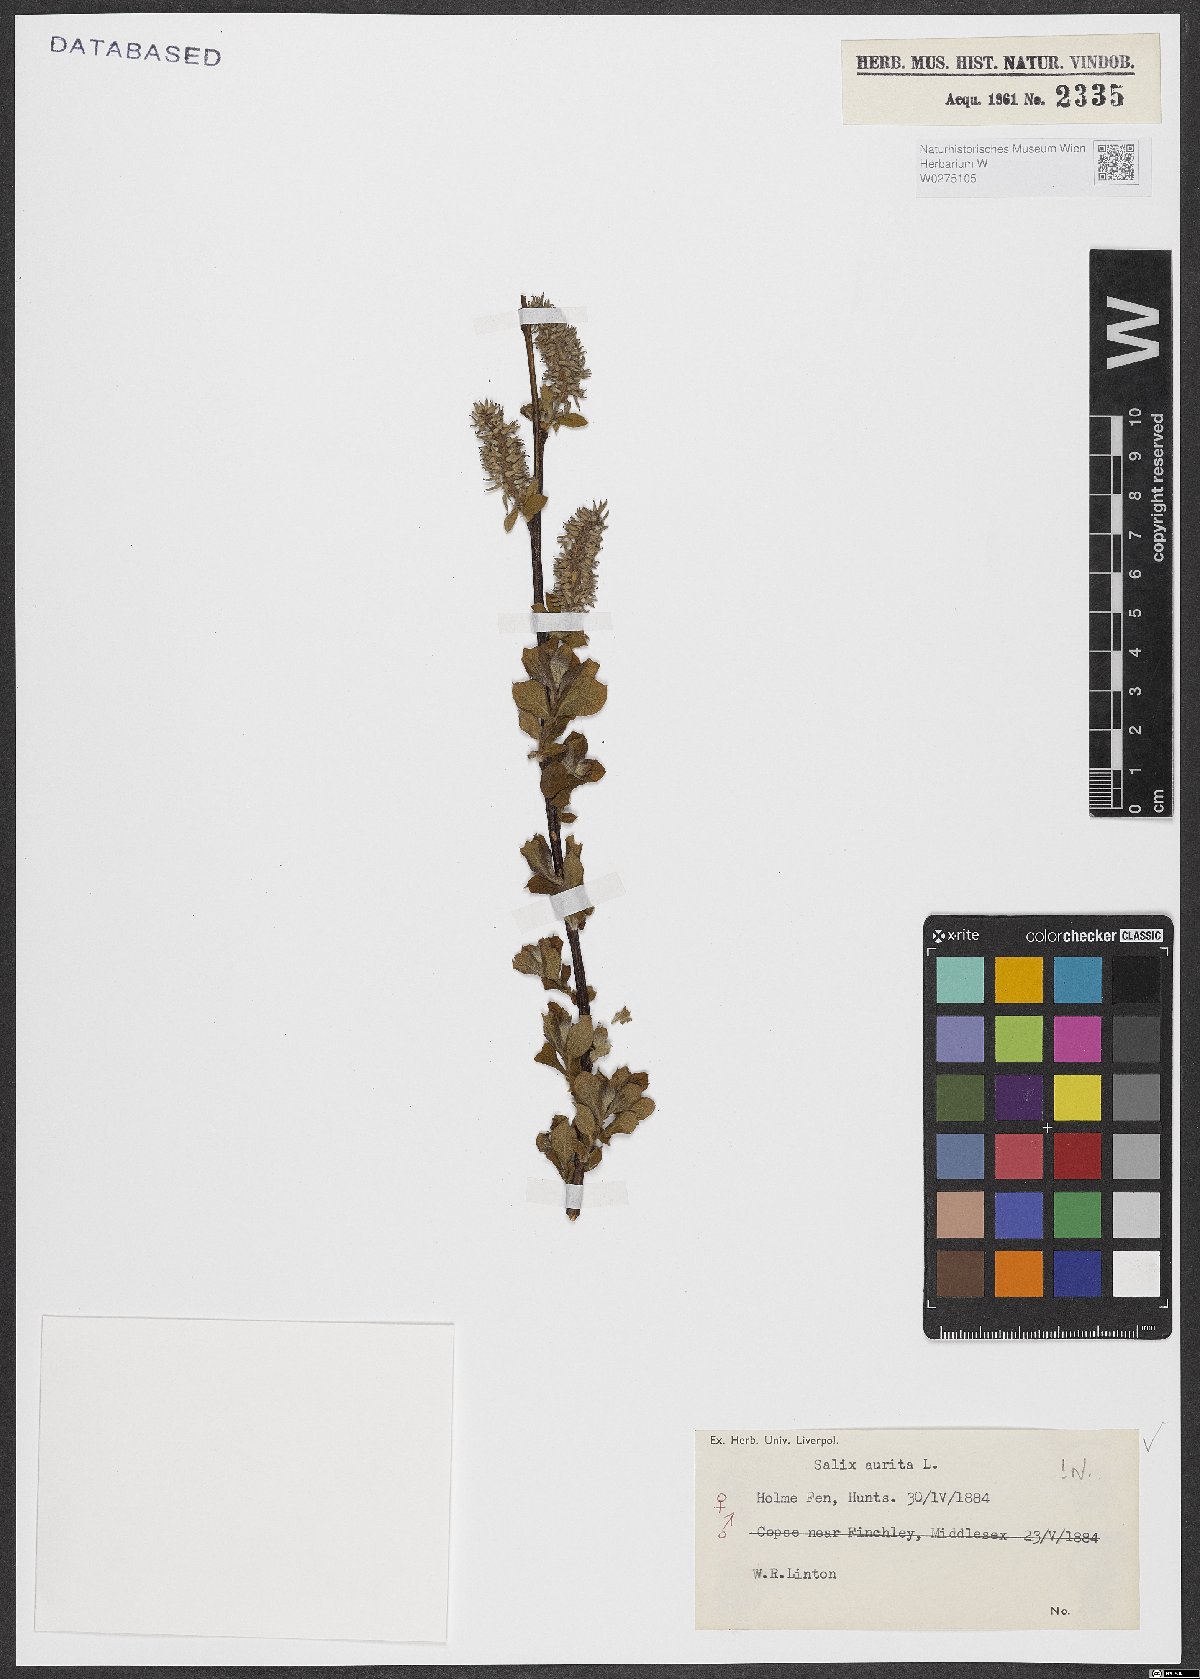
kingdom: Plantae
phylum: Tracheophyta
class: Magnoliopsida
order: Malpighiales
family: Salicaceae
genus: Salix
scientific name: Salix aurita
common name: Eared willow
